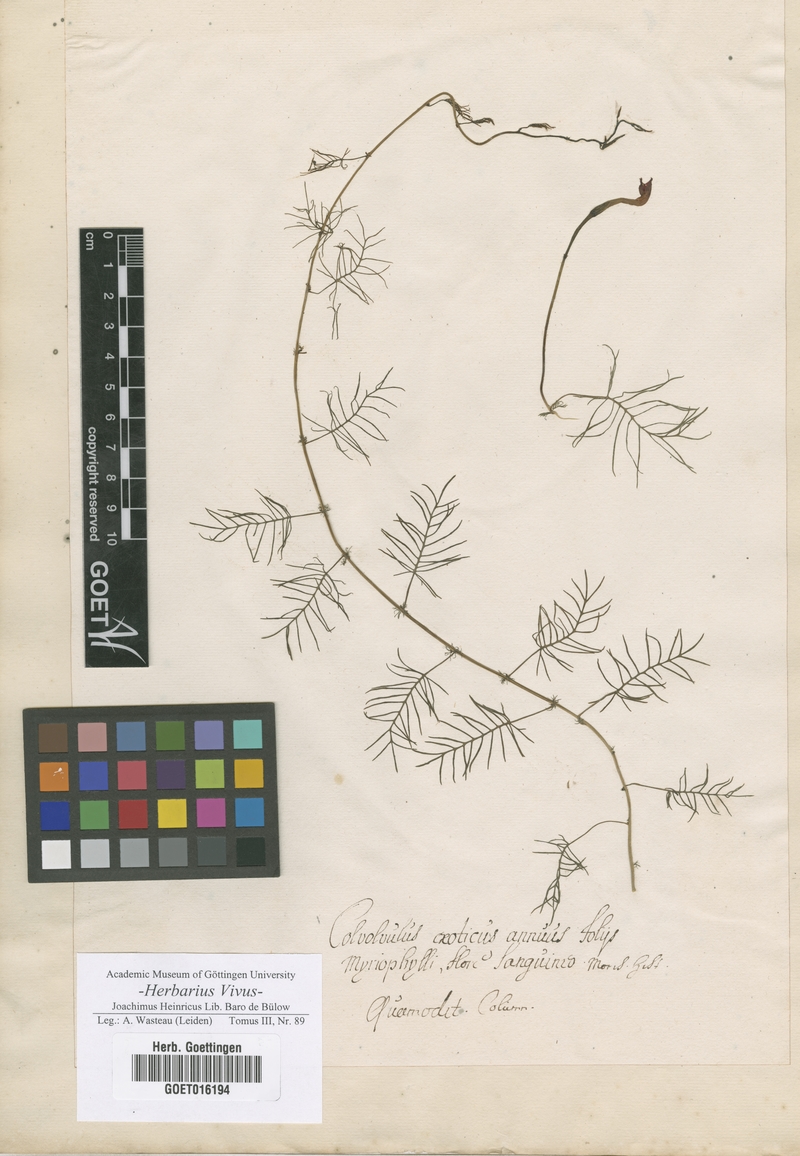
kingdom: Plantae
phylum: Tracheophyta
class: Magnoliopsida
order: Solanales
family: Convolvulaceae
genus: Ipomoea
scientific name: Ipomoea quamoclit
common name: Cypress vine
